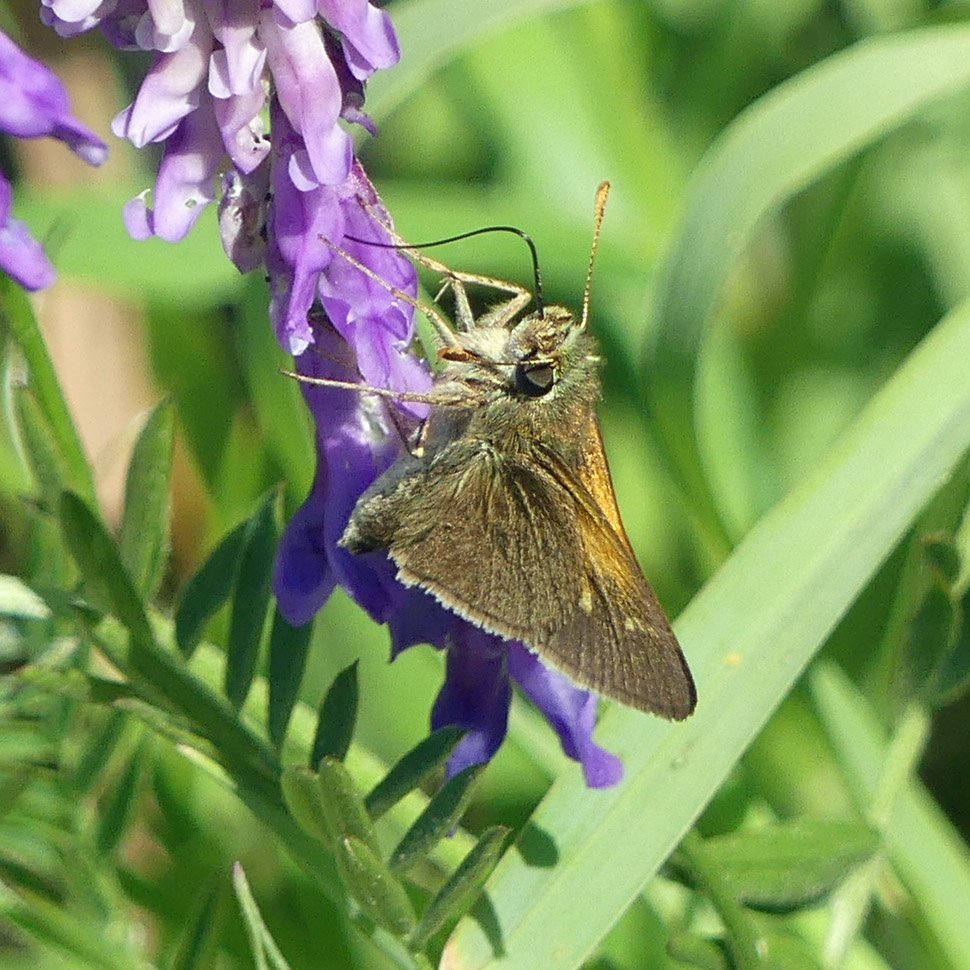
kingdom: Animalia
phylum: Arthropoda
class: Insecta
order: Lepidoptera
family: Hesperiidae
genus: Polites
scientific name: Polites themistocles
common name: Tawny-edged Skipper
